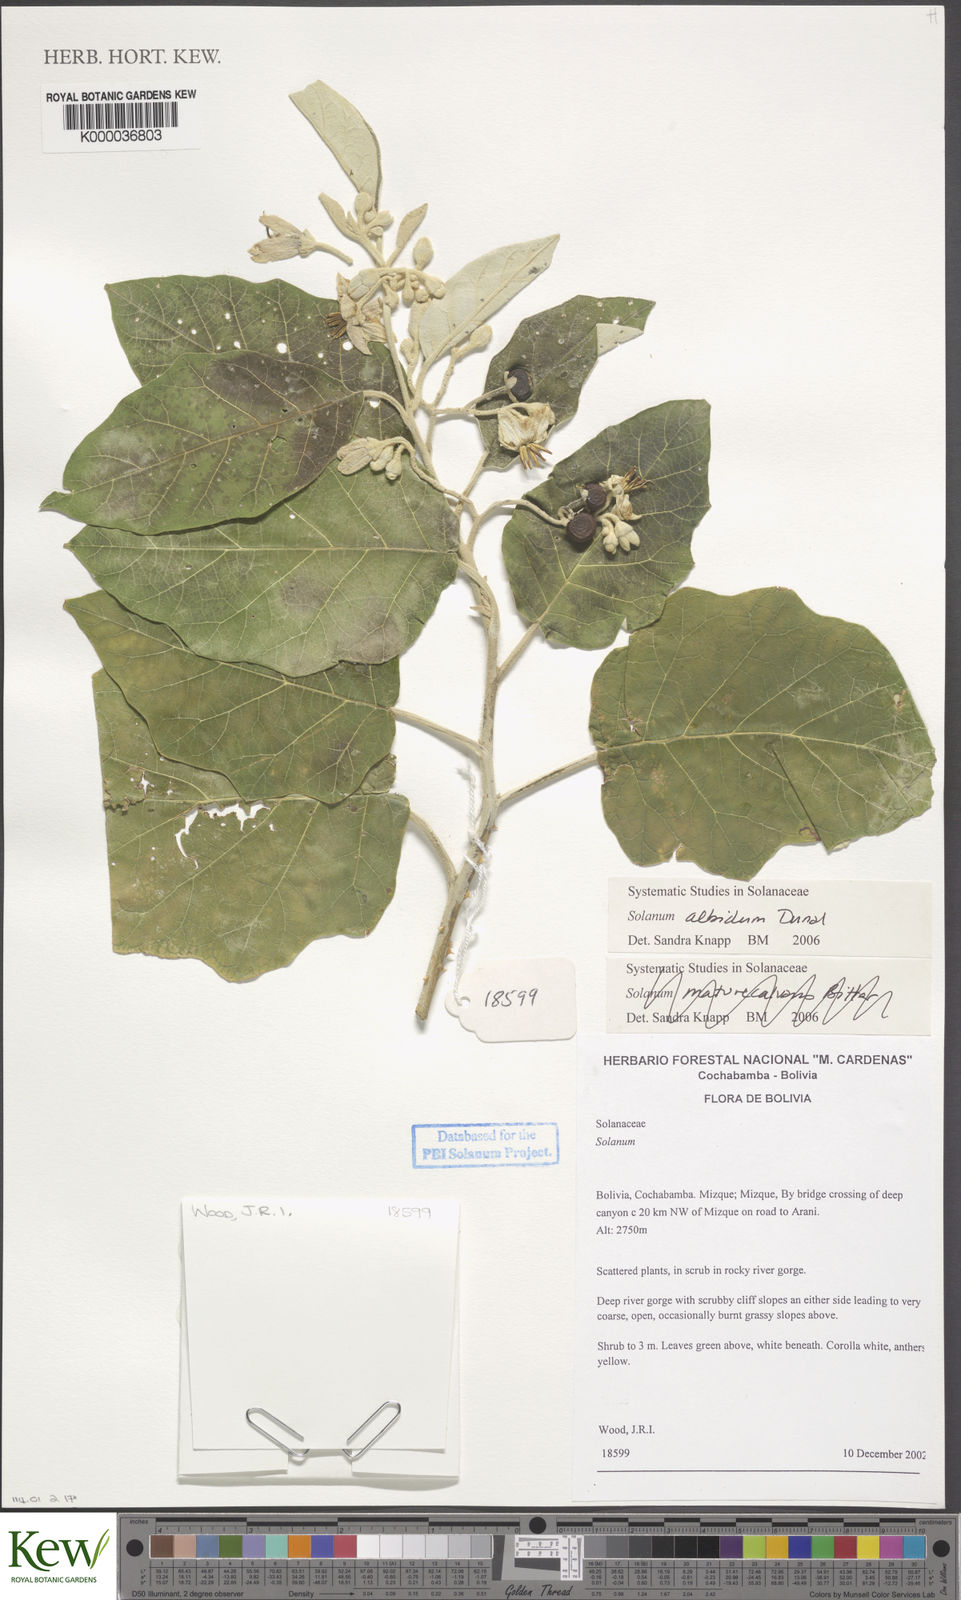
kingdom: Plantae
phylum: Tracheophyta
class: Magnoliopsida
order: Solanales
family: Solanaceae
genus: Solanum
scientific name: Solanum albidum
